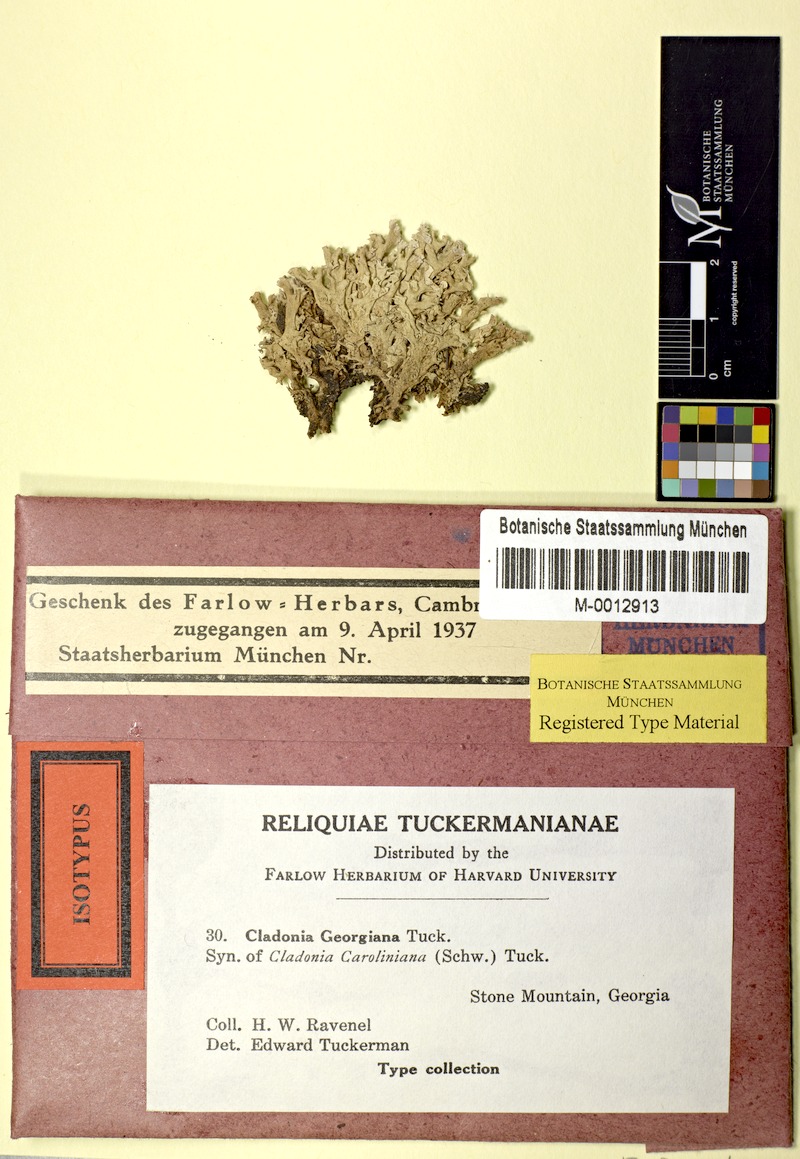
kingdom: Fungi
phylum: Ascomycota
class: Lecanoromycetes
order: Lecanorales
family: Cladoniaceae
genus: Cladonia
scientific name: Cladonia caroliniana
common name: Granite thorn
